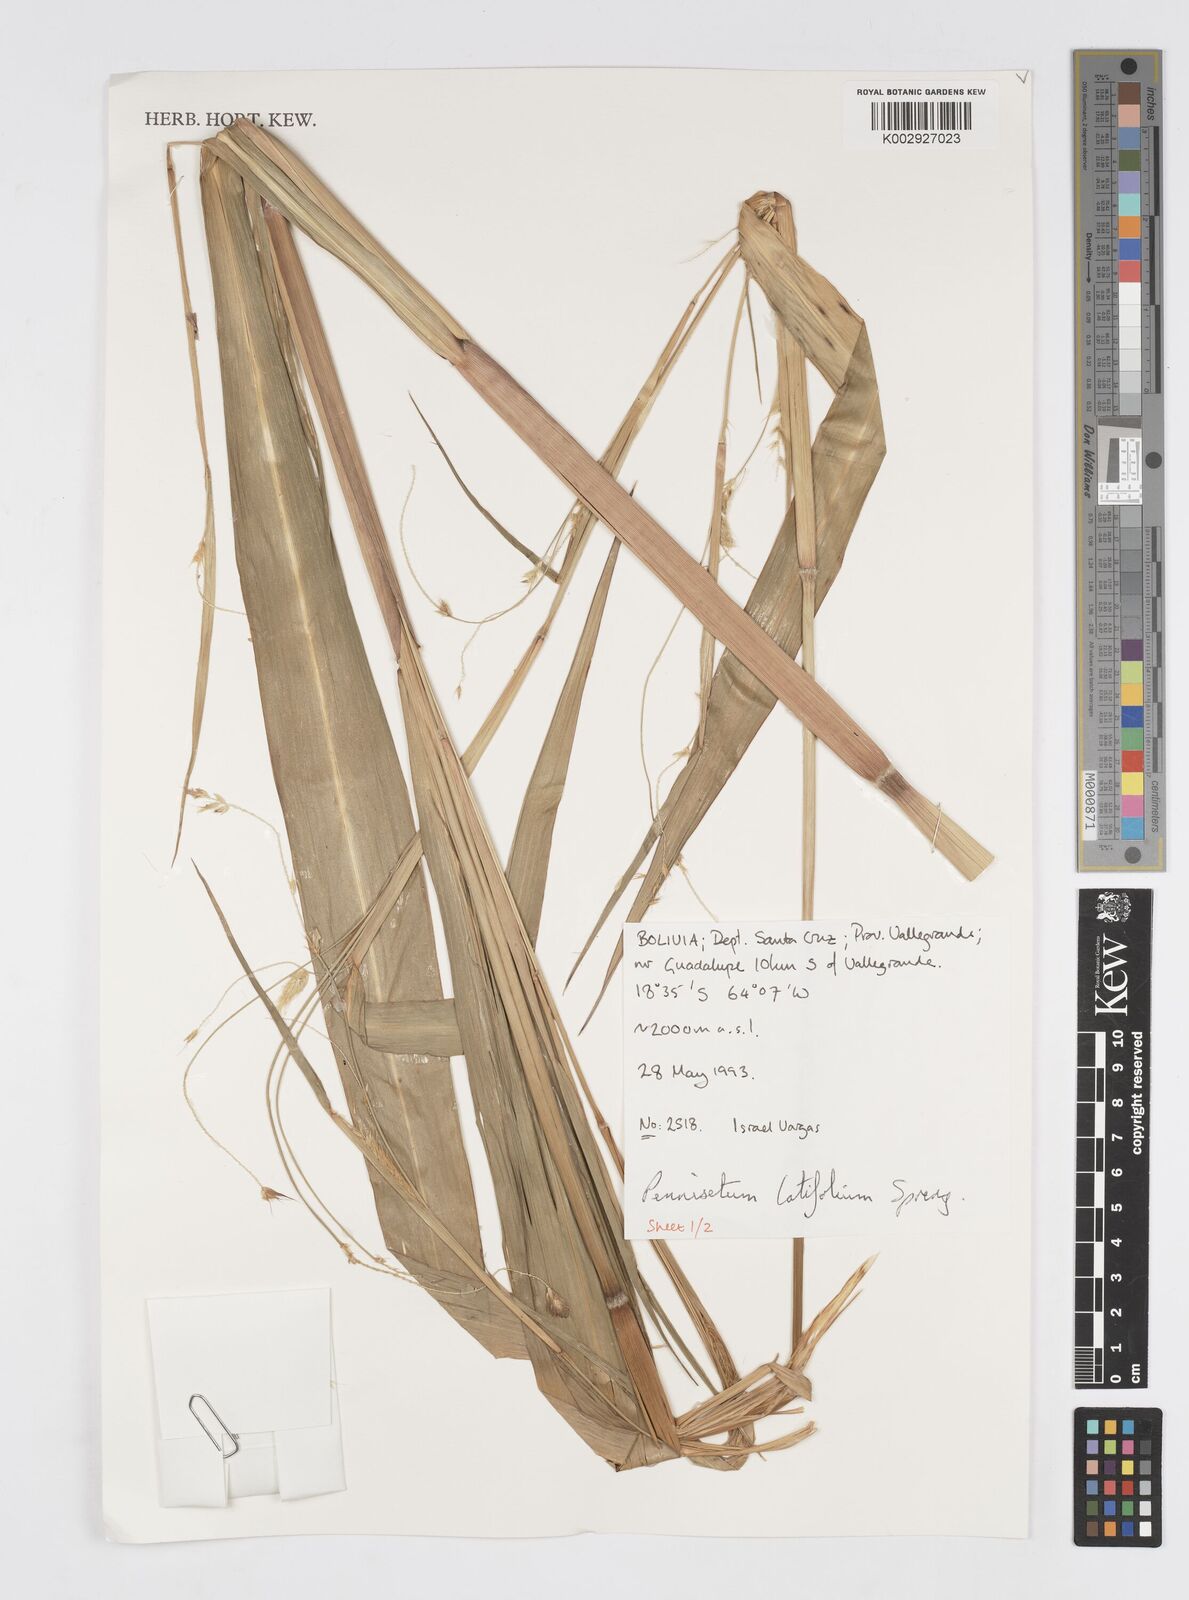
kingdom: Plantae
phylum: Tracheophyta
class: Liliopsida
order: Poales
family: Poaceae
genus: Cenchrus
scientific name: Cenchrus latifolius
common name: Sandbur
